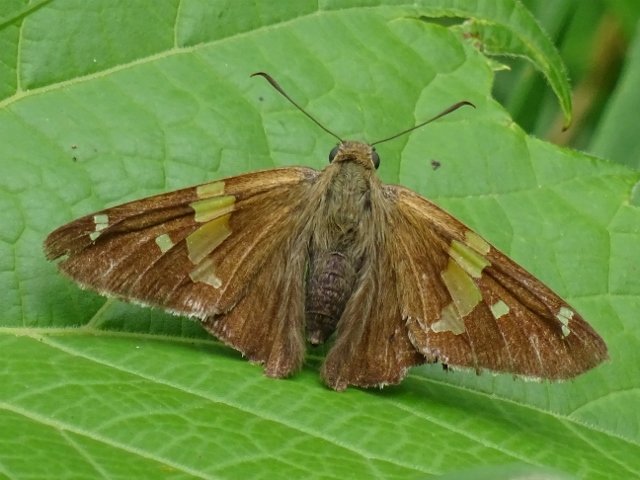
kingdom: Animalia
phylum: Arthropoda
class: Insecta
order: Lepidoptera
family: Hesperiidae
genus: Epargyreus
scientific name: Epargyreus clarus
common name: Silver-spotted Skipper
